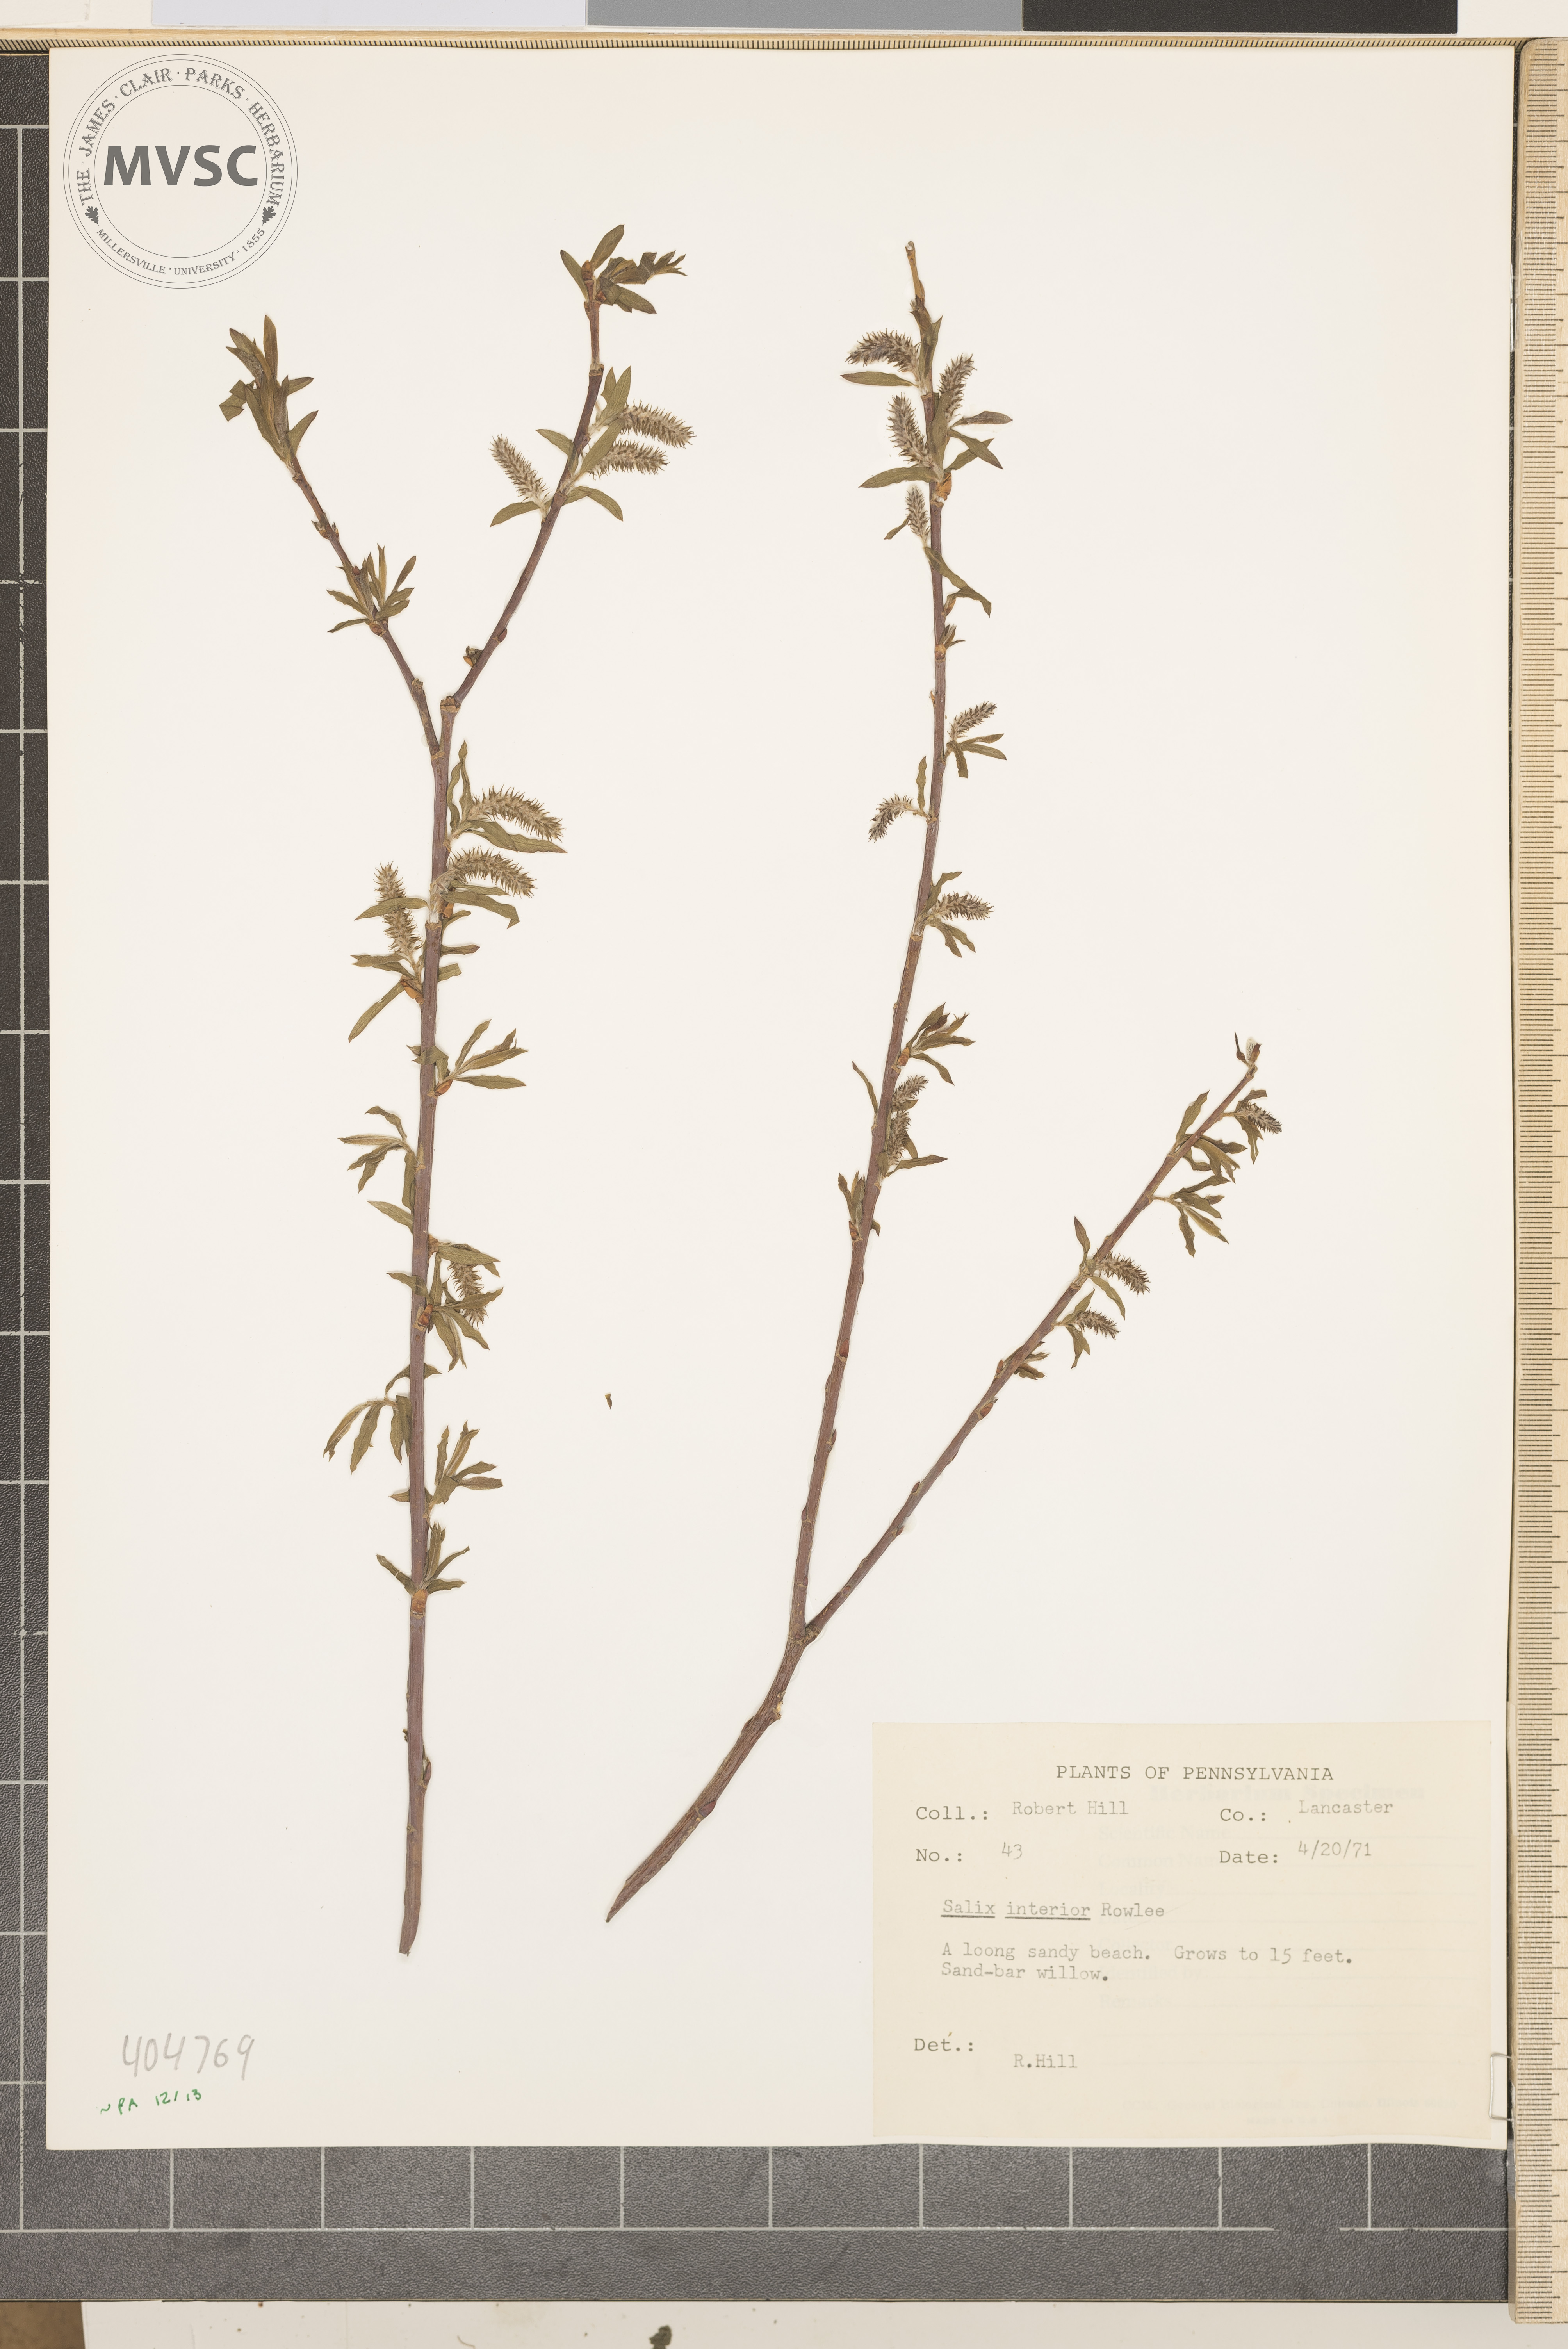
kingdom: Plantae
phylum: Tracheophyta
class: Magnoliopsida
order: Malpighiales
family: Salicaceae
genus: Salix
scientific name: Salix interior
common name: Sandbar willow
